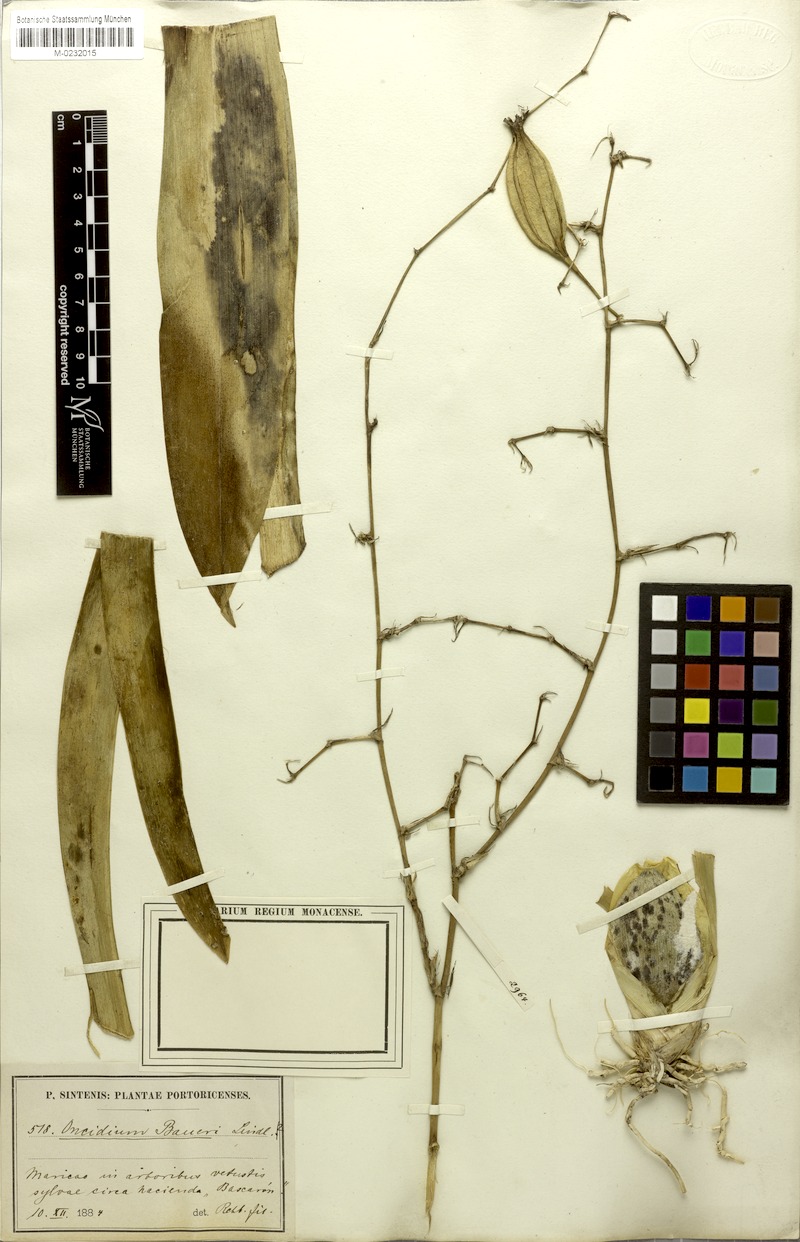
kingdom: Plantae
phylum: Tracheophyta
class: Liliopsida
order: Asparagales
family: Orchidaceae
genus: Oncidium
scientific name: Oncidium baueri
